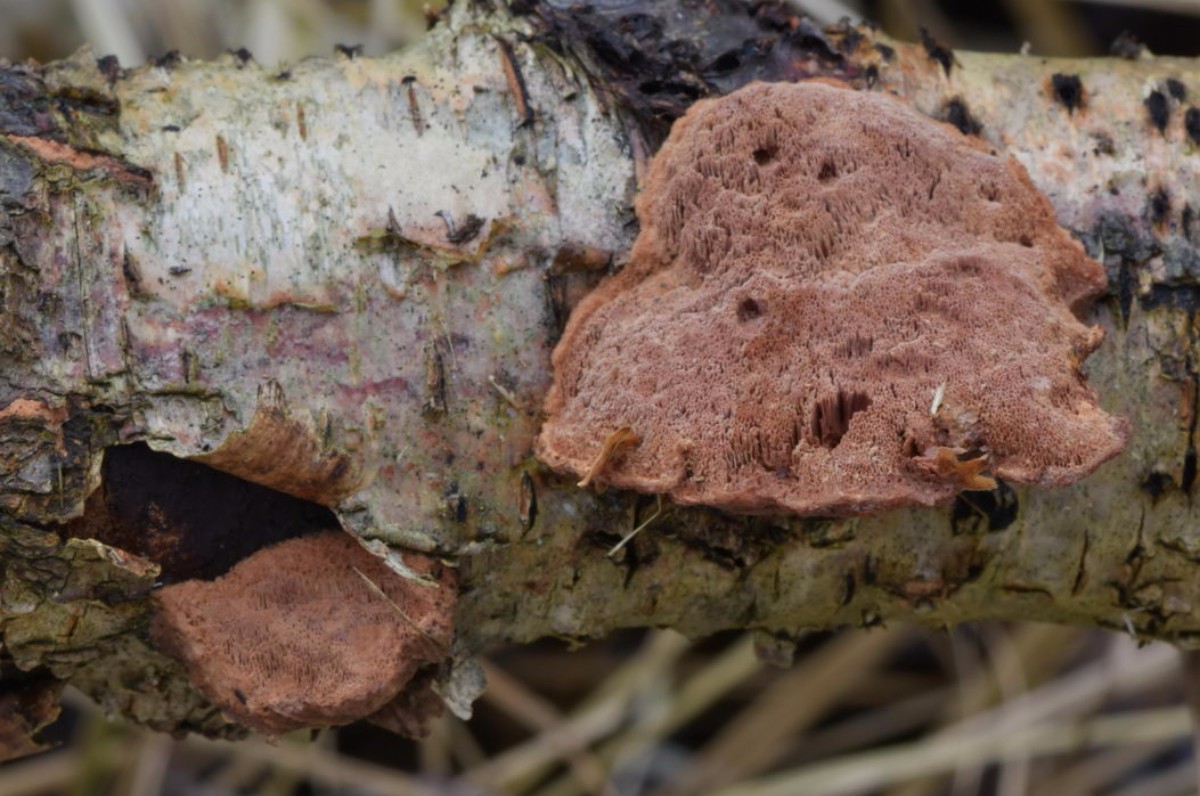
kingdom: Fungi
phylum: Basidiomycota
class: Agaricomycetes
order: Polyporales
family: Phanerochaetaceae
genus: Hapalopilus
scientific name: Hapalopilus rutilans
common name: rødlig okkerporesvamp
